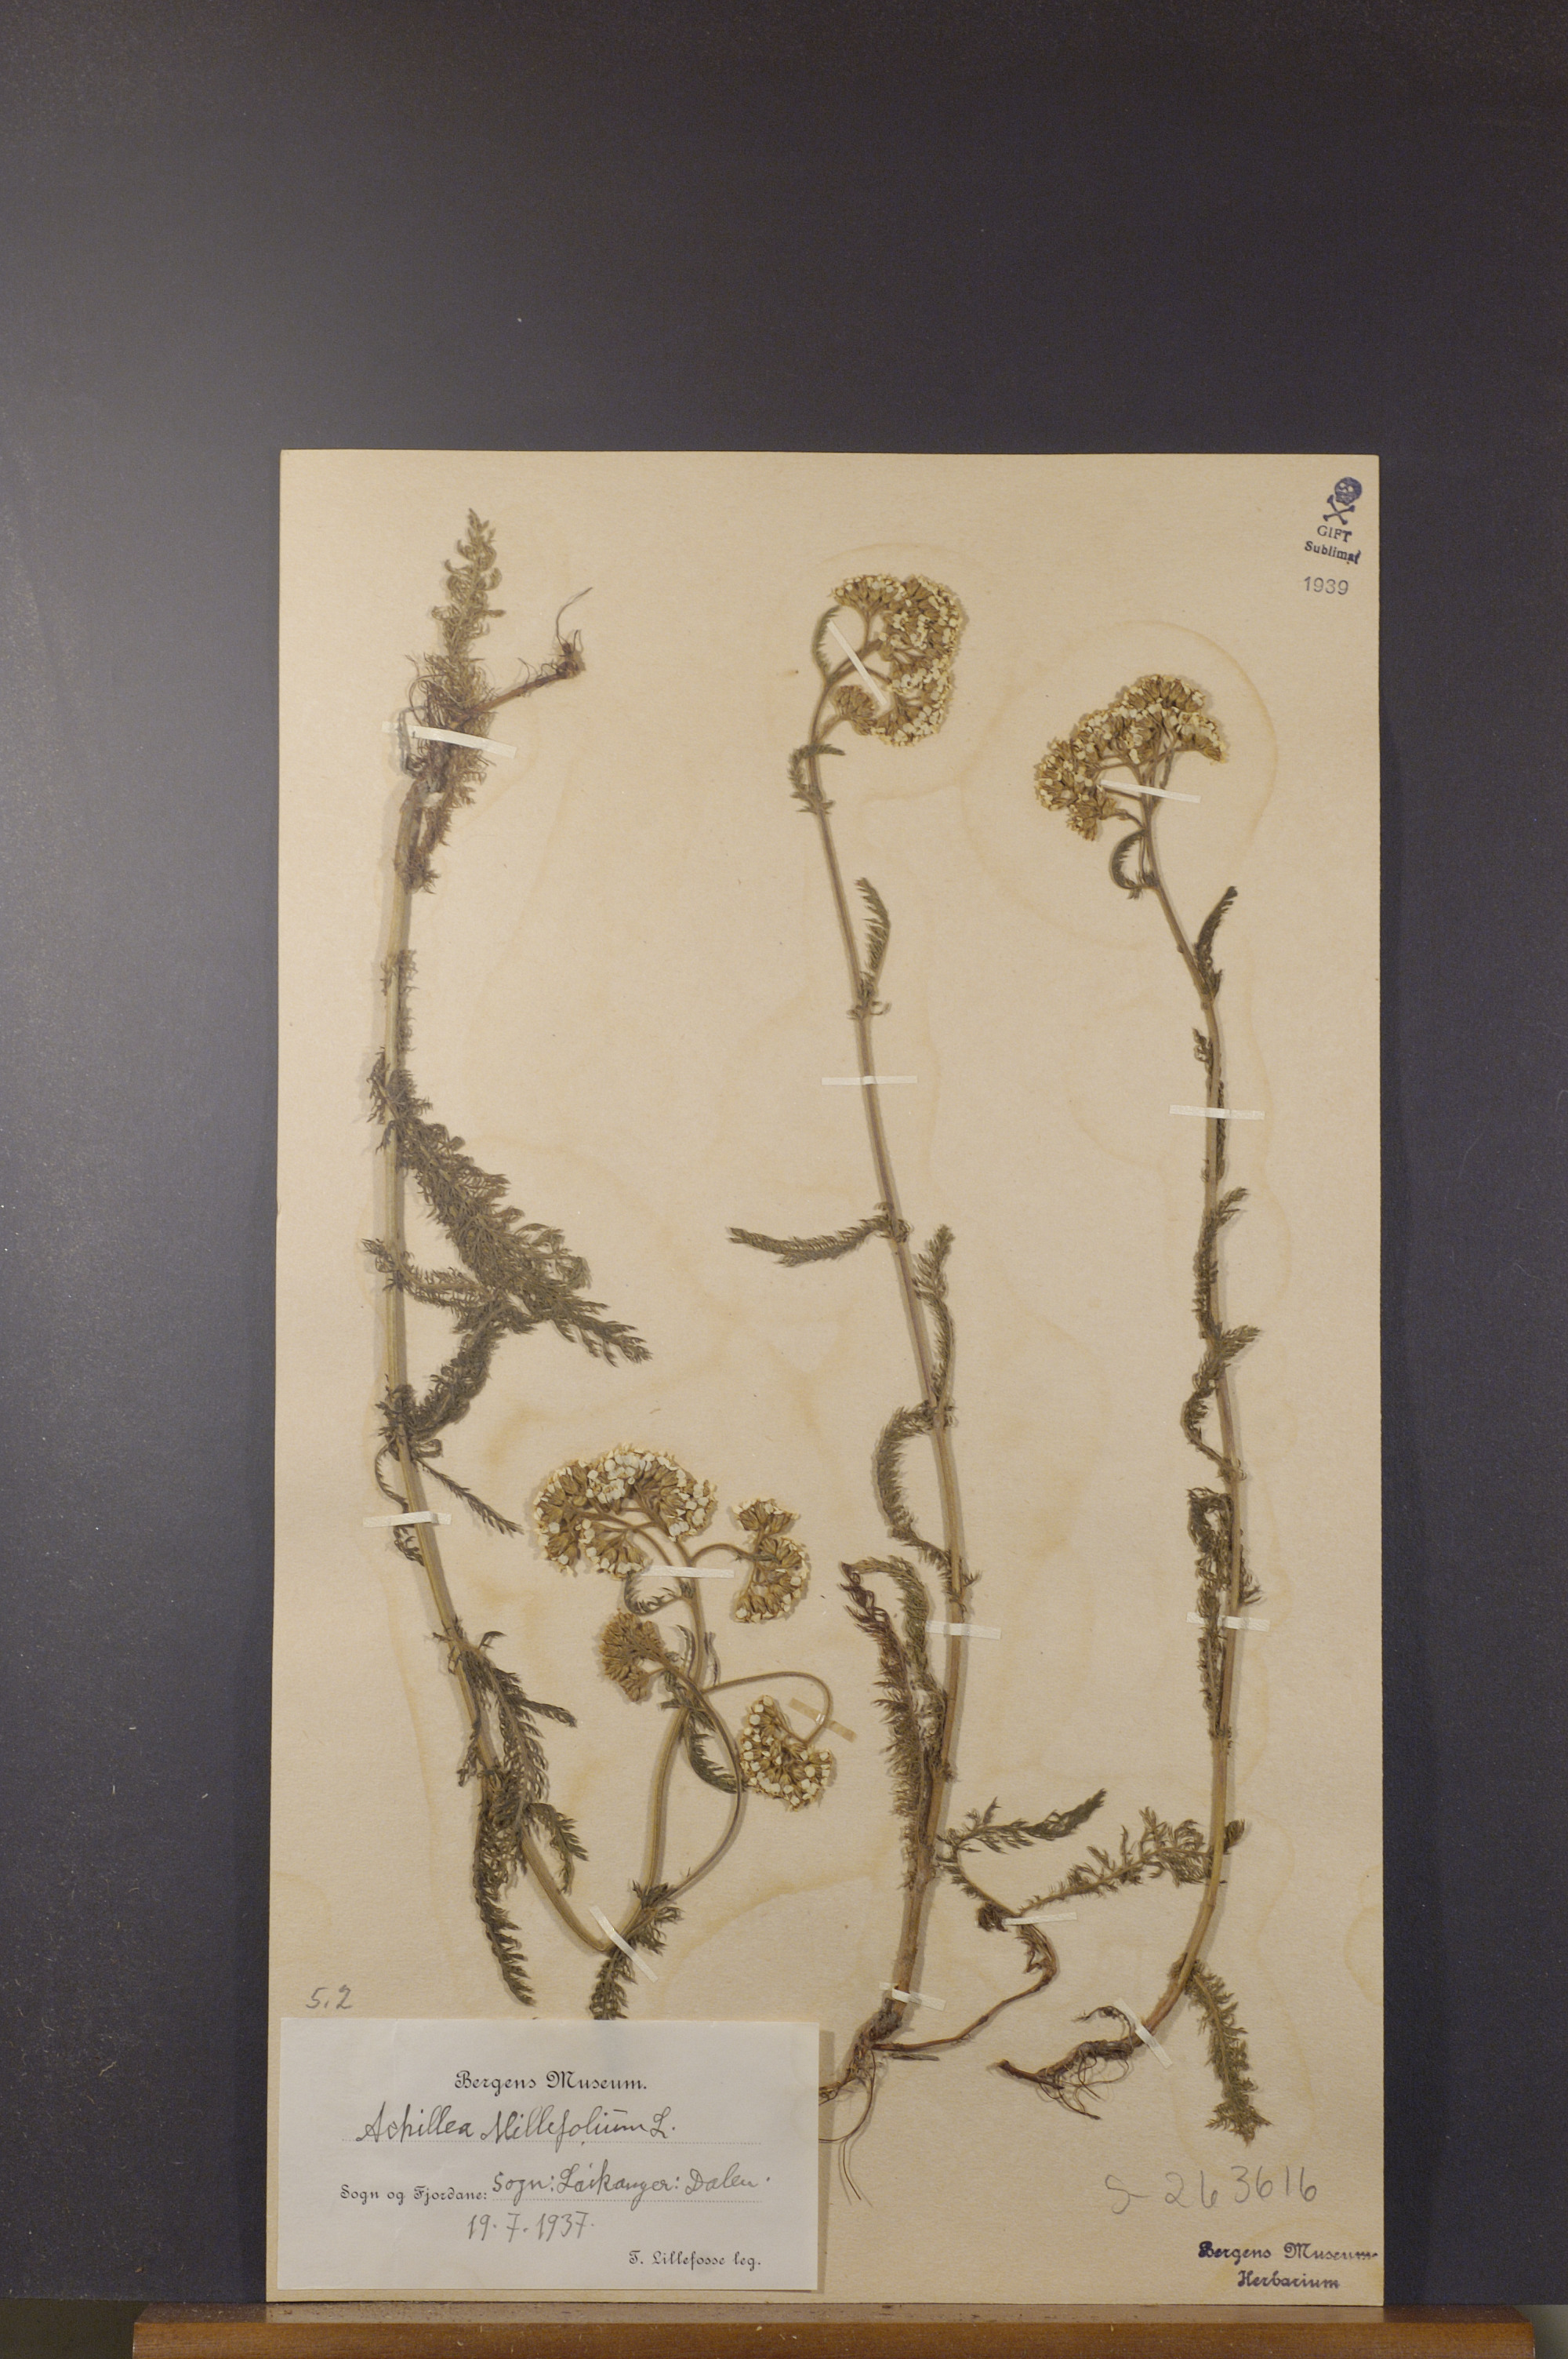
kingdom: Plantae
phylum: Tracheophyta
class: Magnoliopsida
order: Asterales
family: Asteraceae
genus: Achillea
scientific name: Achillea millefolium
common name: Yarrow
